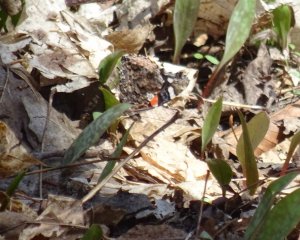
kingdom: Animalia
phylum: Arthropoda
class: Insecta
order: Lepidoptera
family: Nymphalidae
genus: Vanessa
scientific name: Vanessa atalanta
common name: Red Admiral
